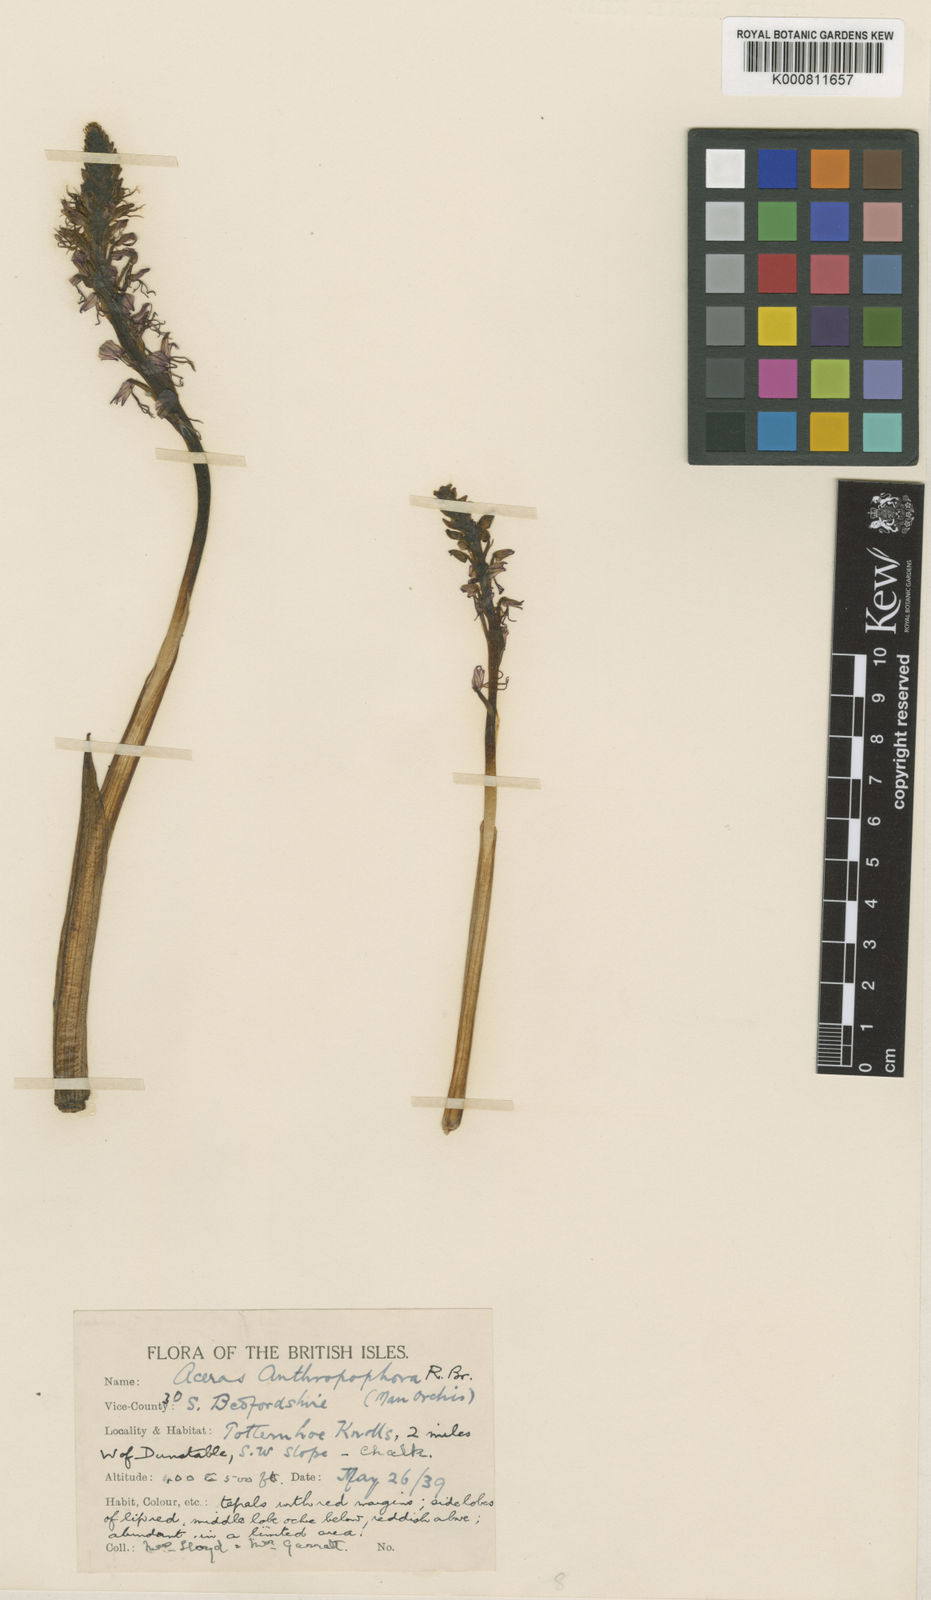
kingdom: Plantae
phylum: Tracheophyta
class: Liliopsida
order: Asparagales
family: Orchidaceae
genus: Orchis
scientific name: Orchis
